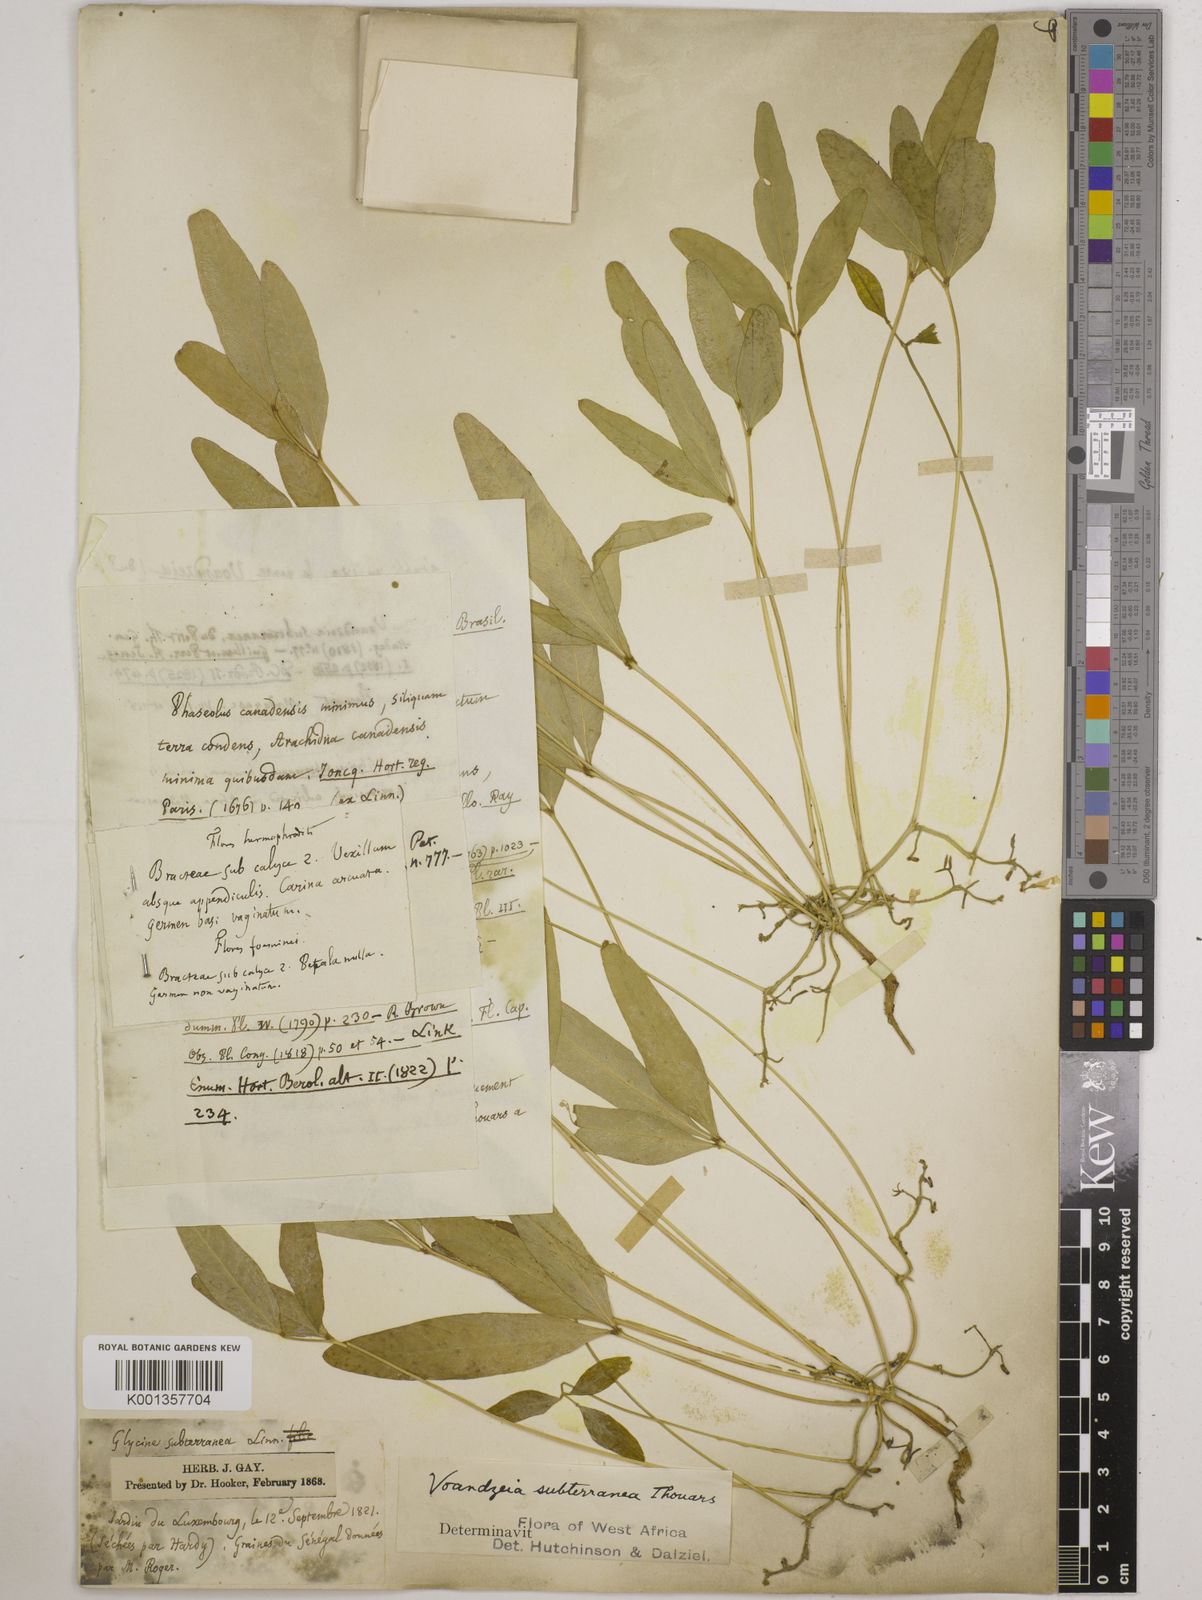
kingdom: Plantae
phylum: Tracheophyta
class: Magnoliopsida
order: Fabales
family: Fabaceae
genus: Vigna
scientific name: Vigna subterranea
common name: Bambara groundnut
